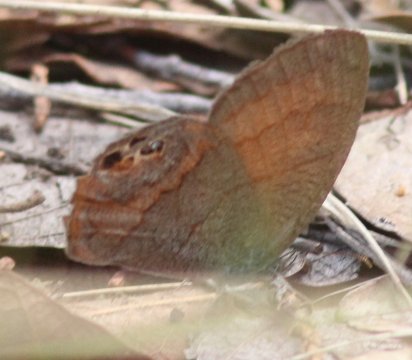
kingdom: Animalia
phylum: Arthropoda
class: Insecta
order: Lepidoptera
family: Nymphalidae
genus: Euptychia
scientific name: Euptychia pyracmon
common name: Nabokov's Satyr
